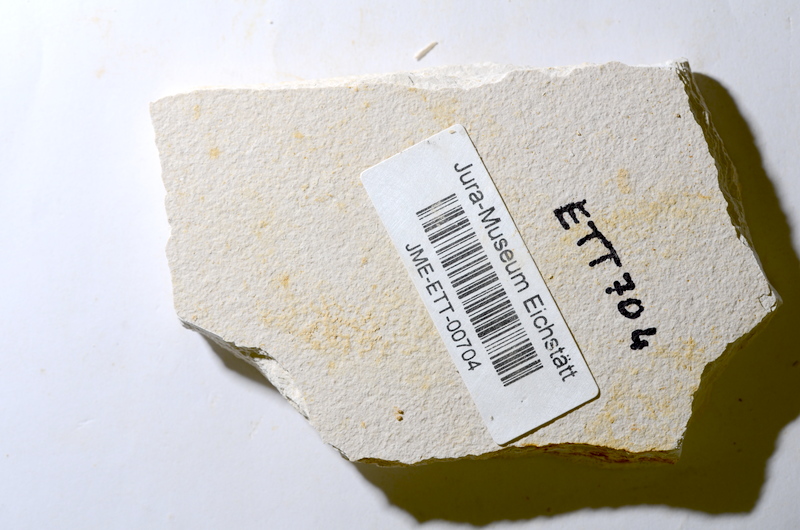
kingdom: Animalia
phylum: Chordata
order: Salmoniformes
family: Orthogonikleithridae
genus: Orthogonikleithrus
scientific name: Orthogonikleithrus hoelli
